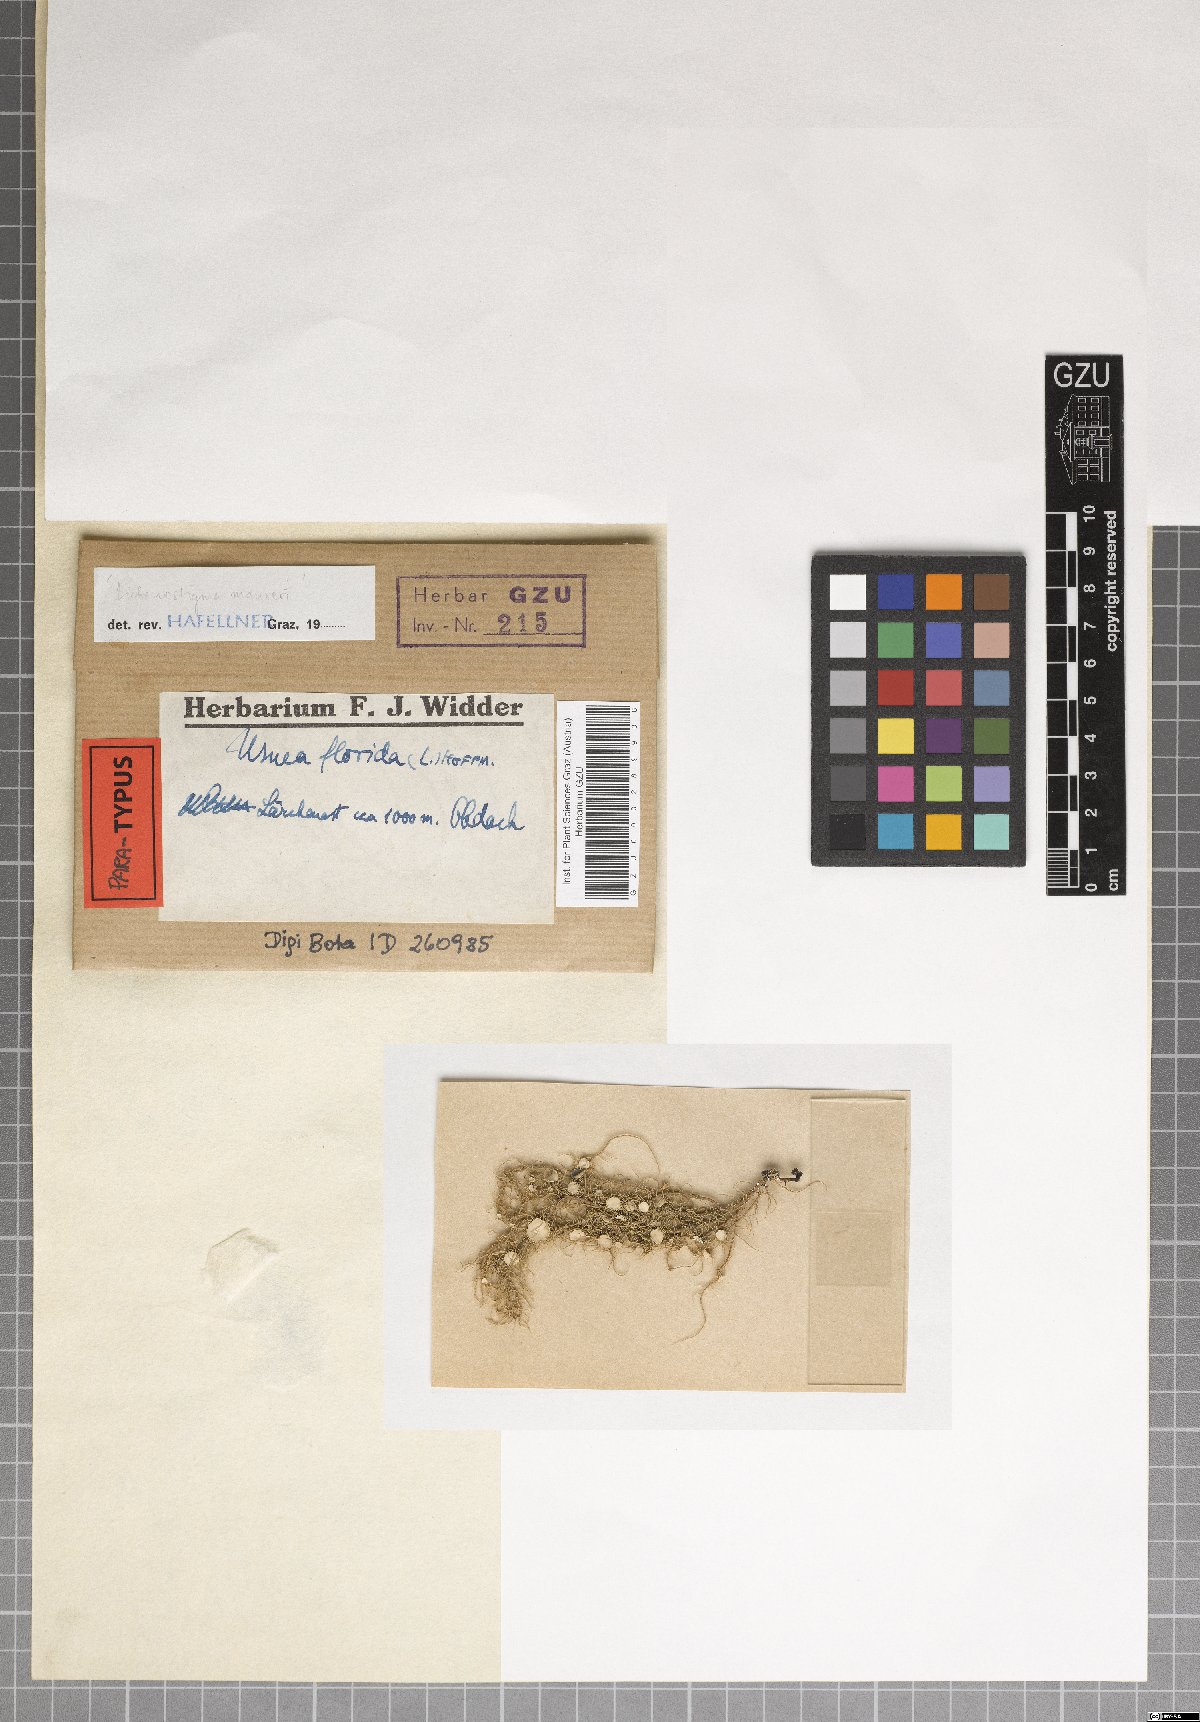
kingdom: Fungi
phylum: Ascomycota
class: Arthoniomycetes
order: Lichenostigmatales
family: Phaeococcomycetaceae
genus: Lichenostigma
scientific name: Lichenostigma maureri
